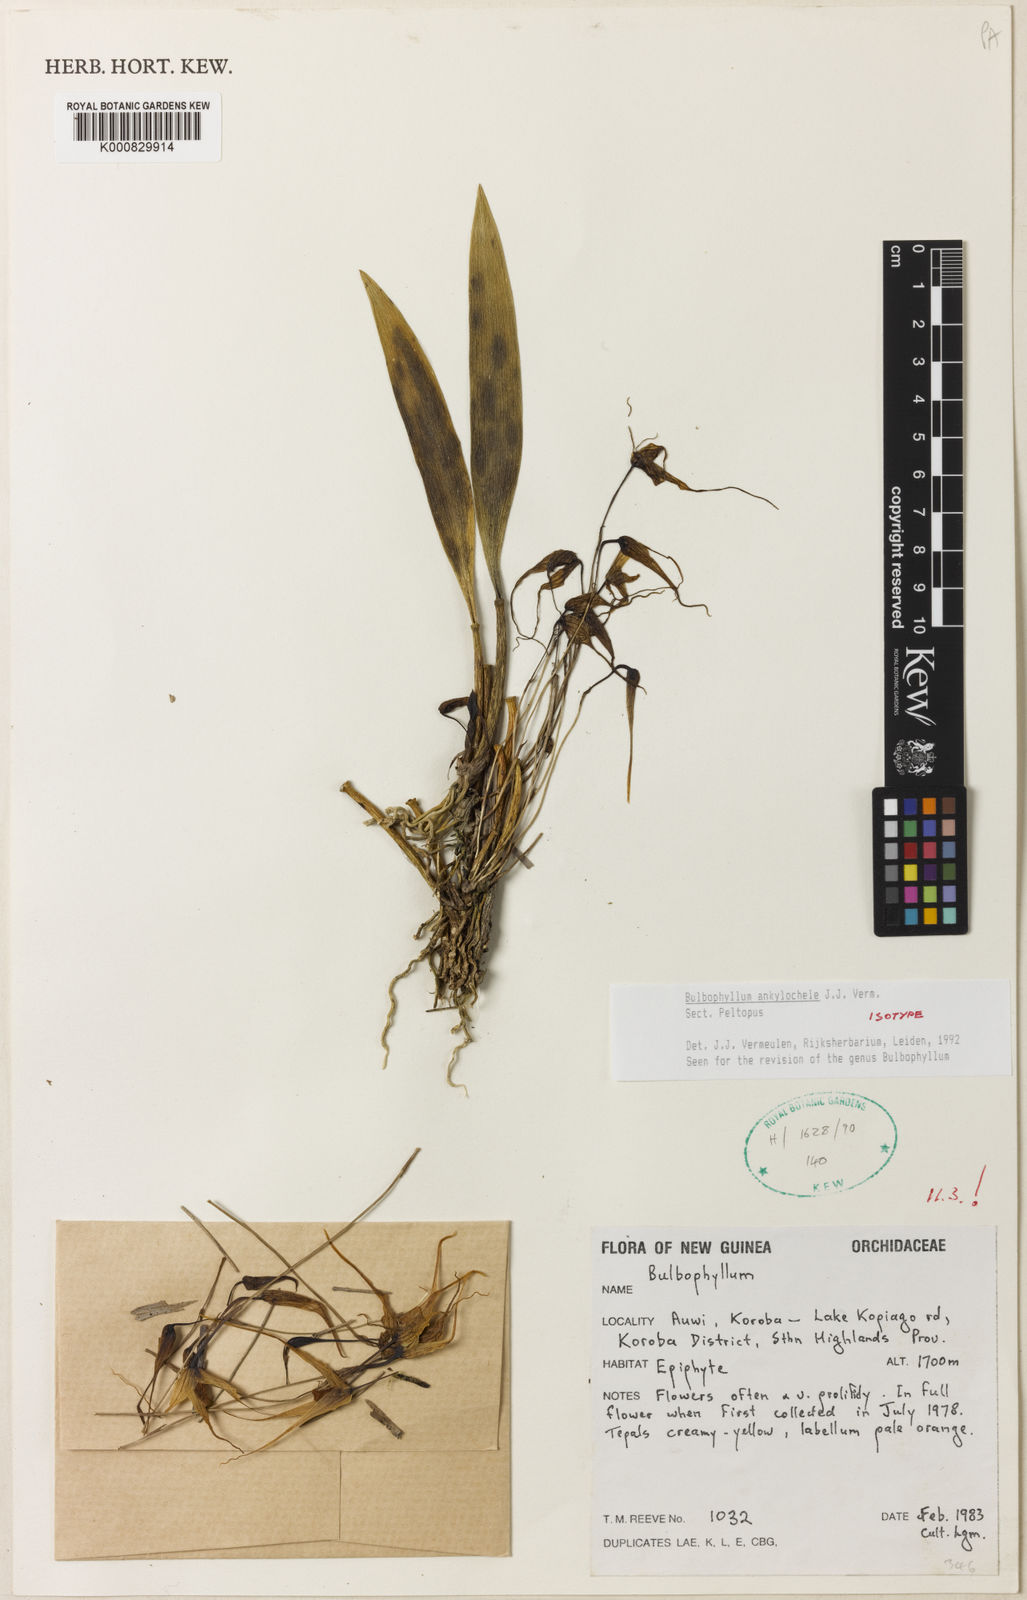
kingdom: Plantae
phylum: Tracheophyta
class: Liliopsida
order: Asparagales
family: Orchidaceae
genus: Bulbophyllum
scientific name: Bulbophyllum
